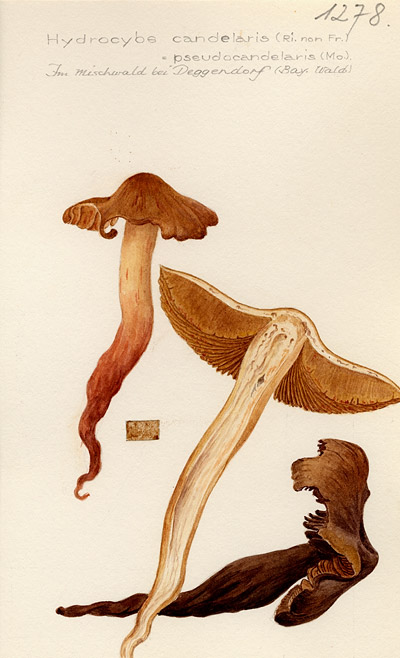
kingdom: Fungi
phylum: Basidiomycota
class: Agaricomycetes
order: Agaricales
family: Cortinariaceae
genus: Cortinarius
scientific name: Cortinarius pseudocandelaris
